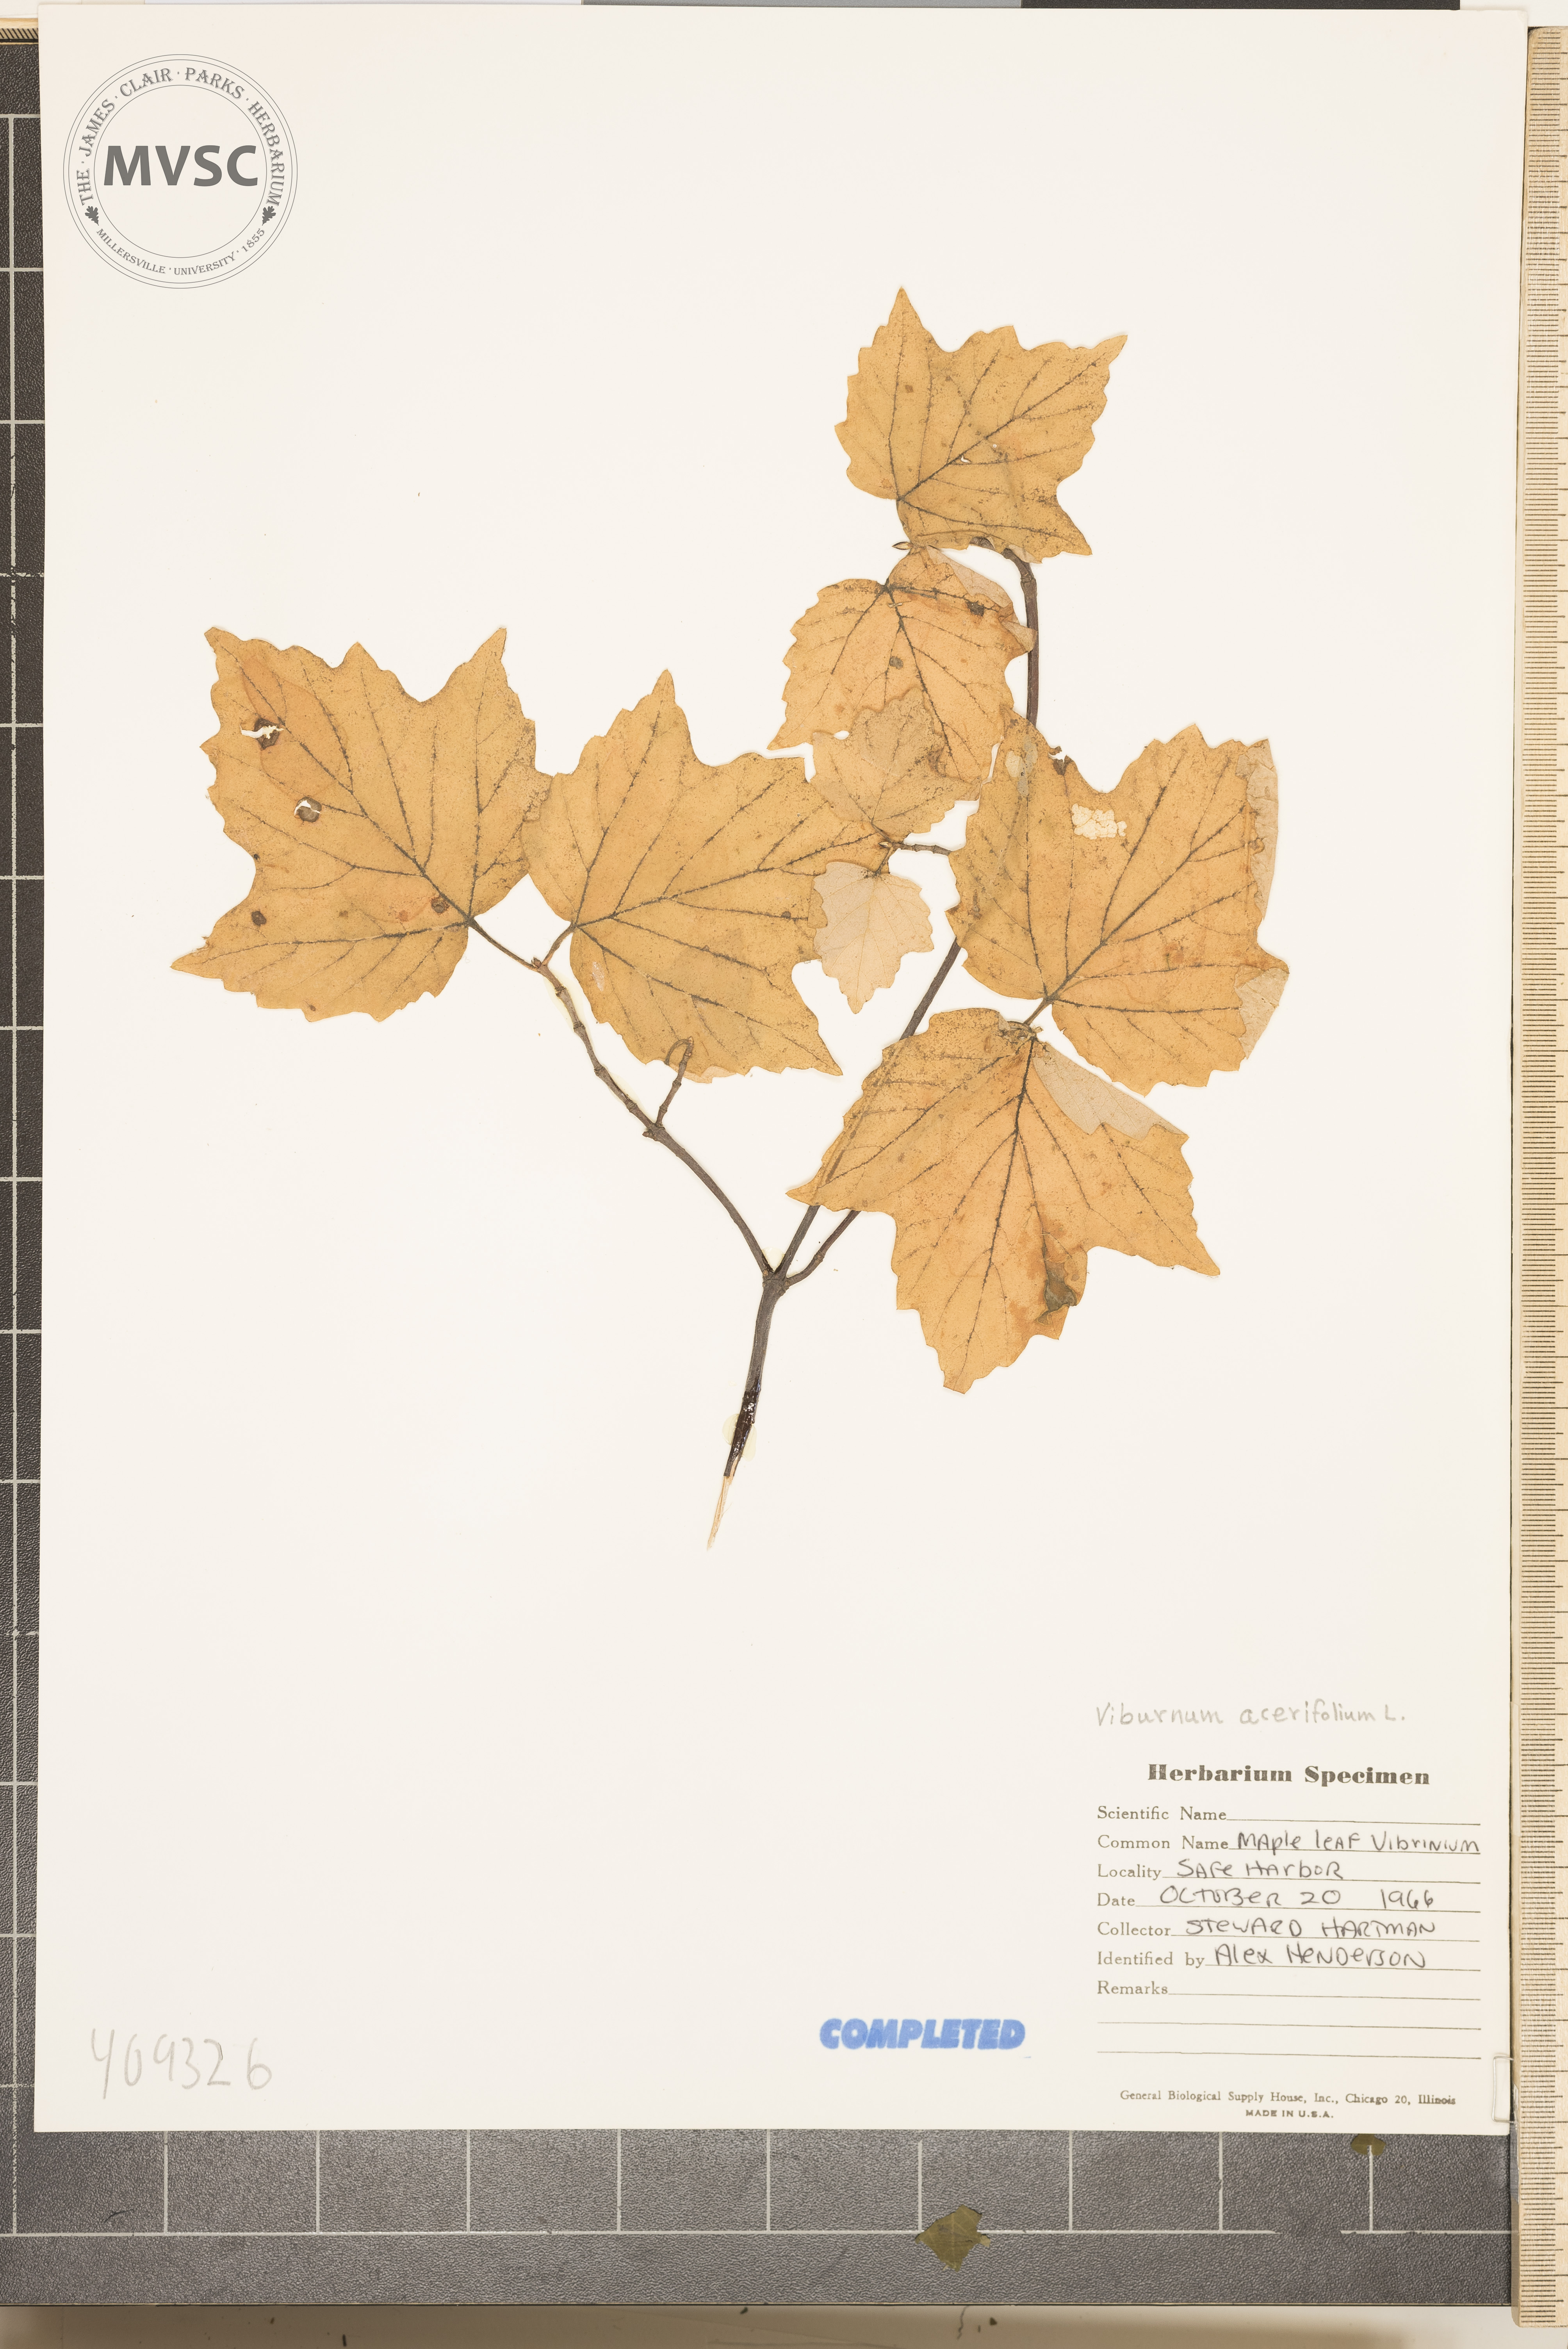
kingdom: Plantae
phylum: Tracheophyta
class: Magnoliopsida
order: Dipsacales
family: Viburnaceae
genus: Viburnum
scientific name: Viburnum
